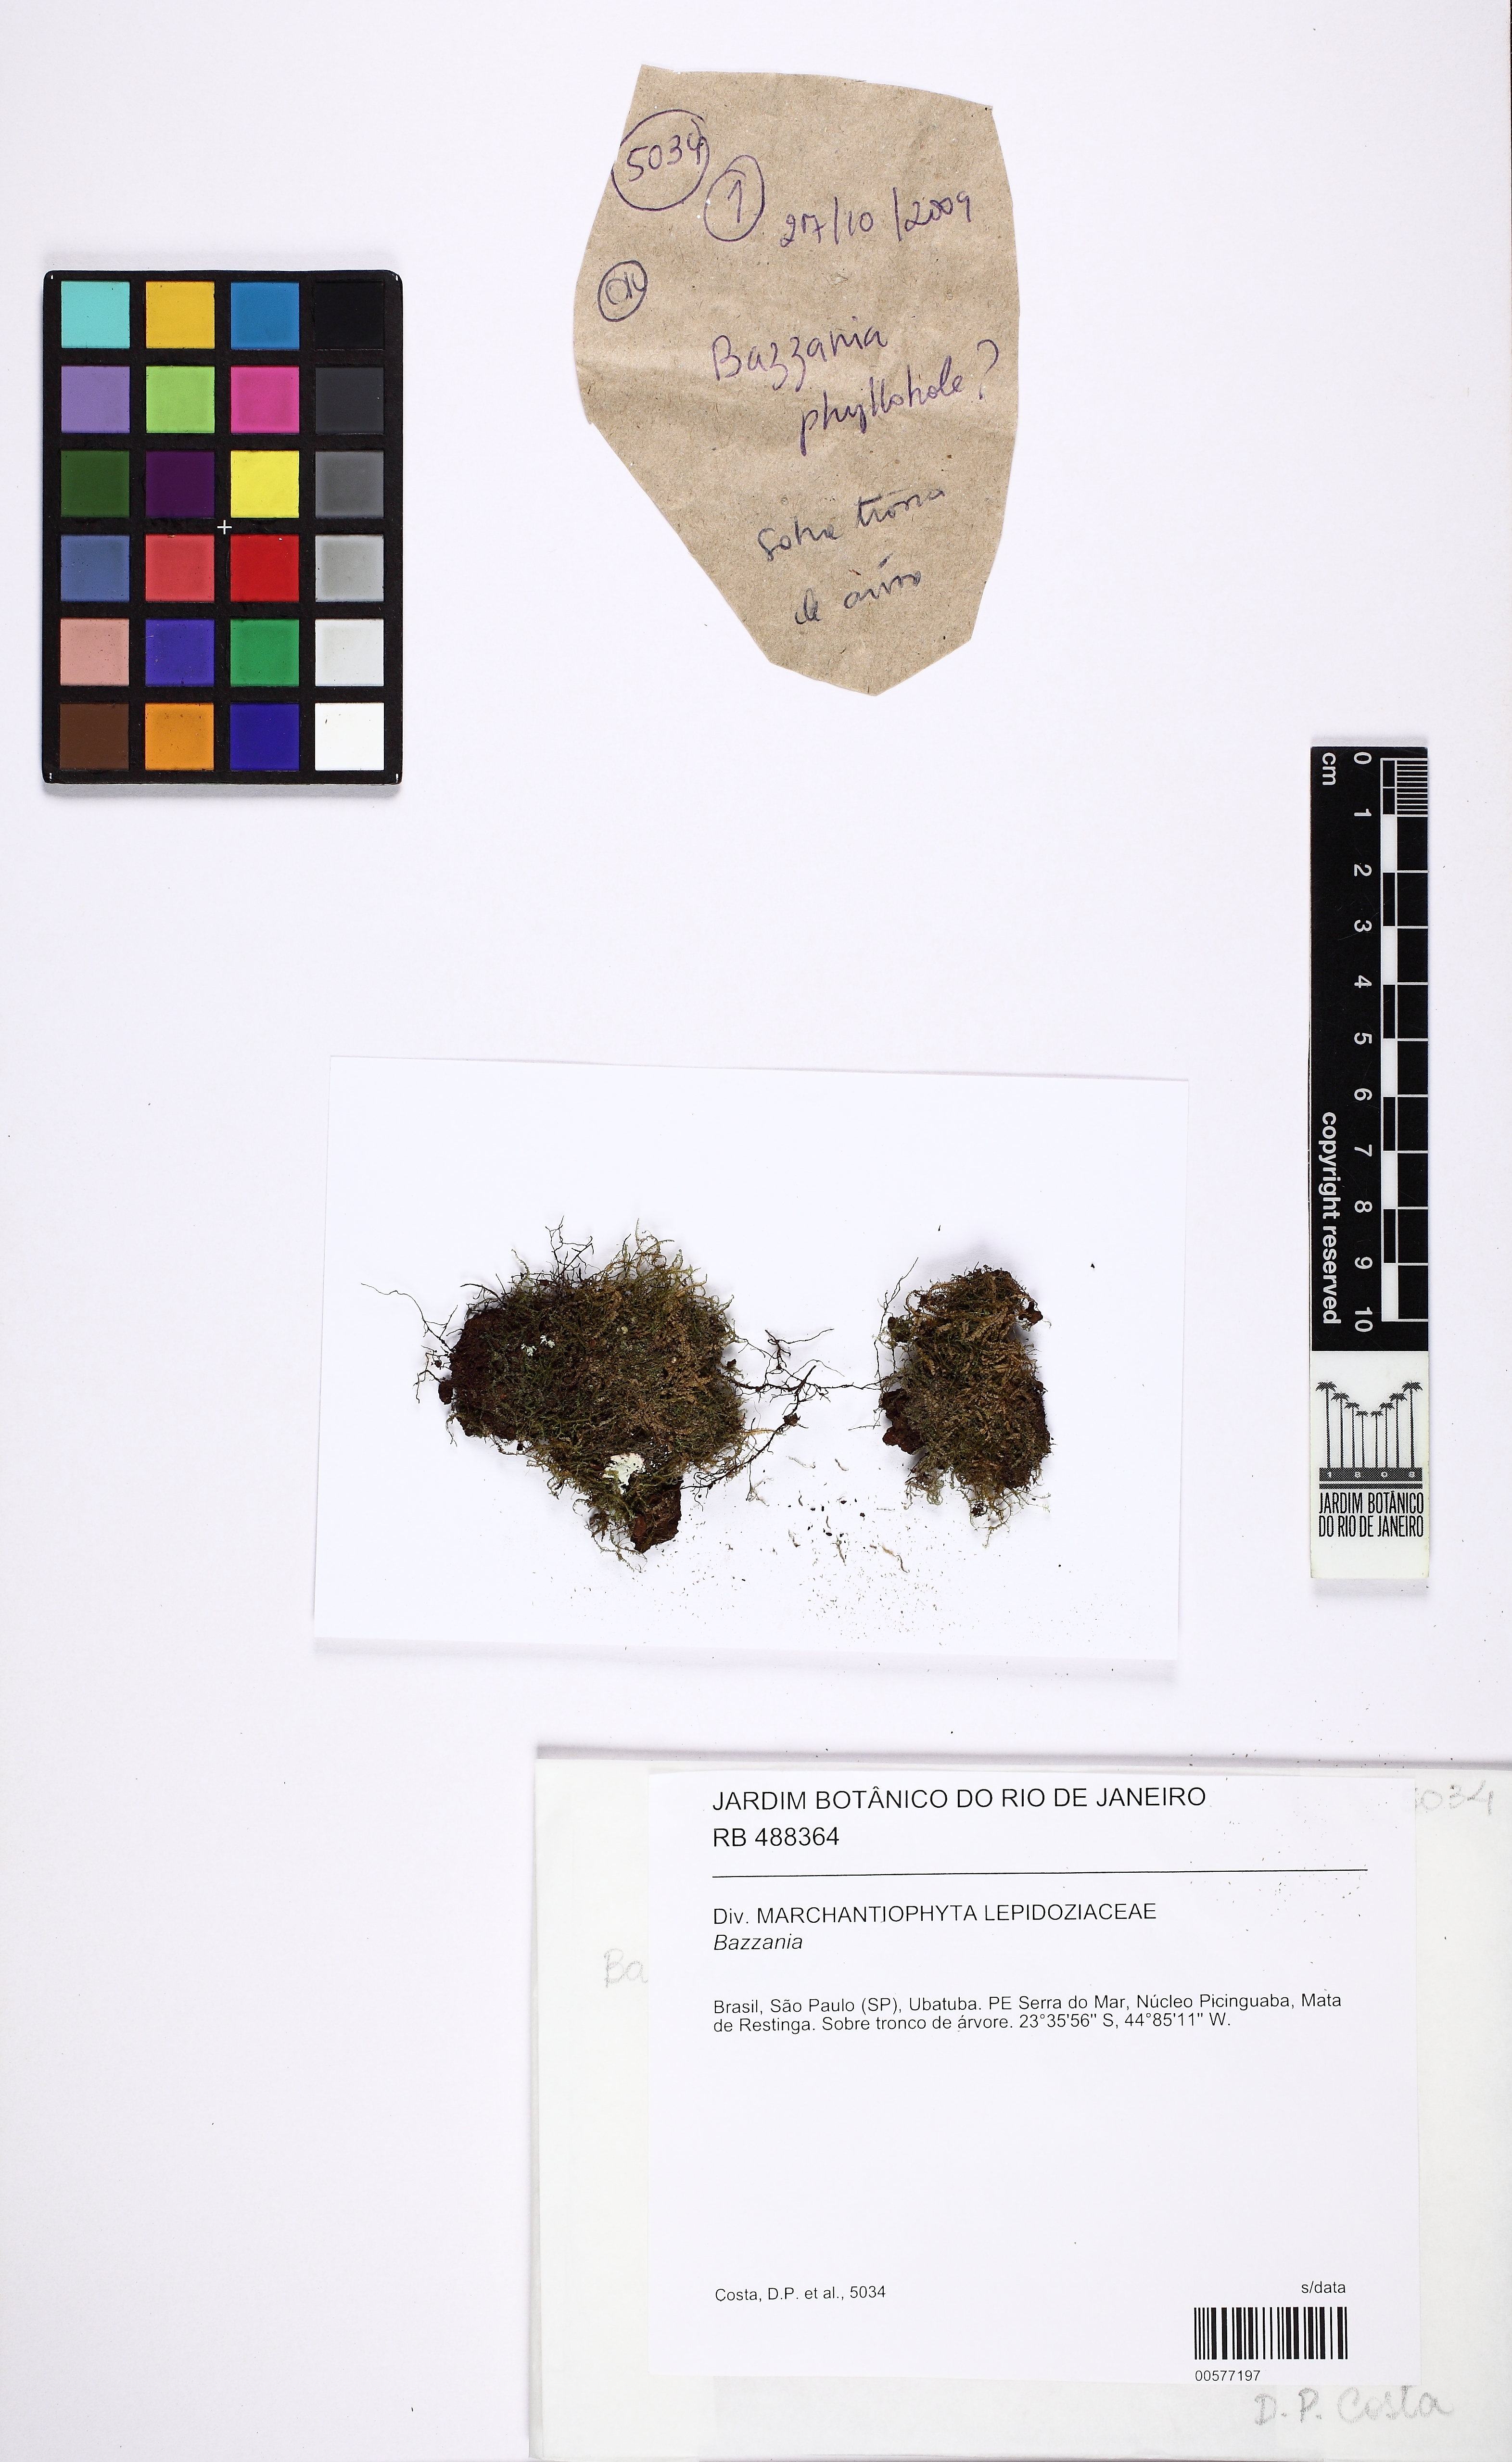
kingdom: Plantae
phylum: Marchantiophyta
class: Jungermanniopsida
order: Jungermanniales
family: Lepidoziaceae
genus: Bazzania
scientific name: Bazzania
